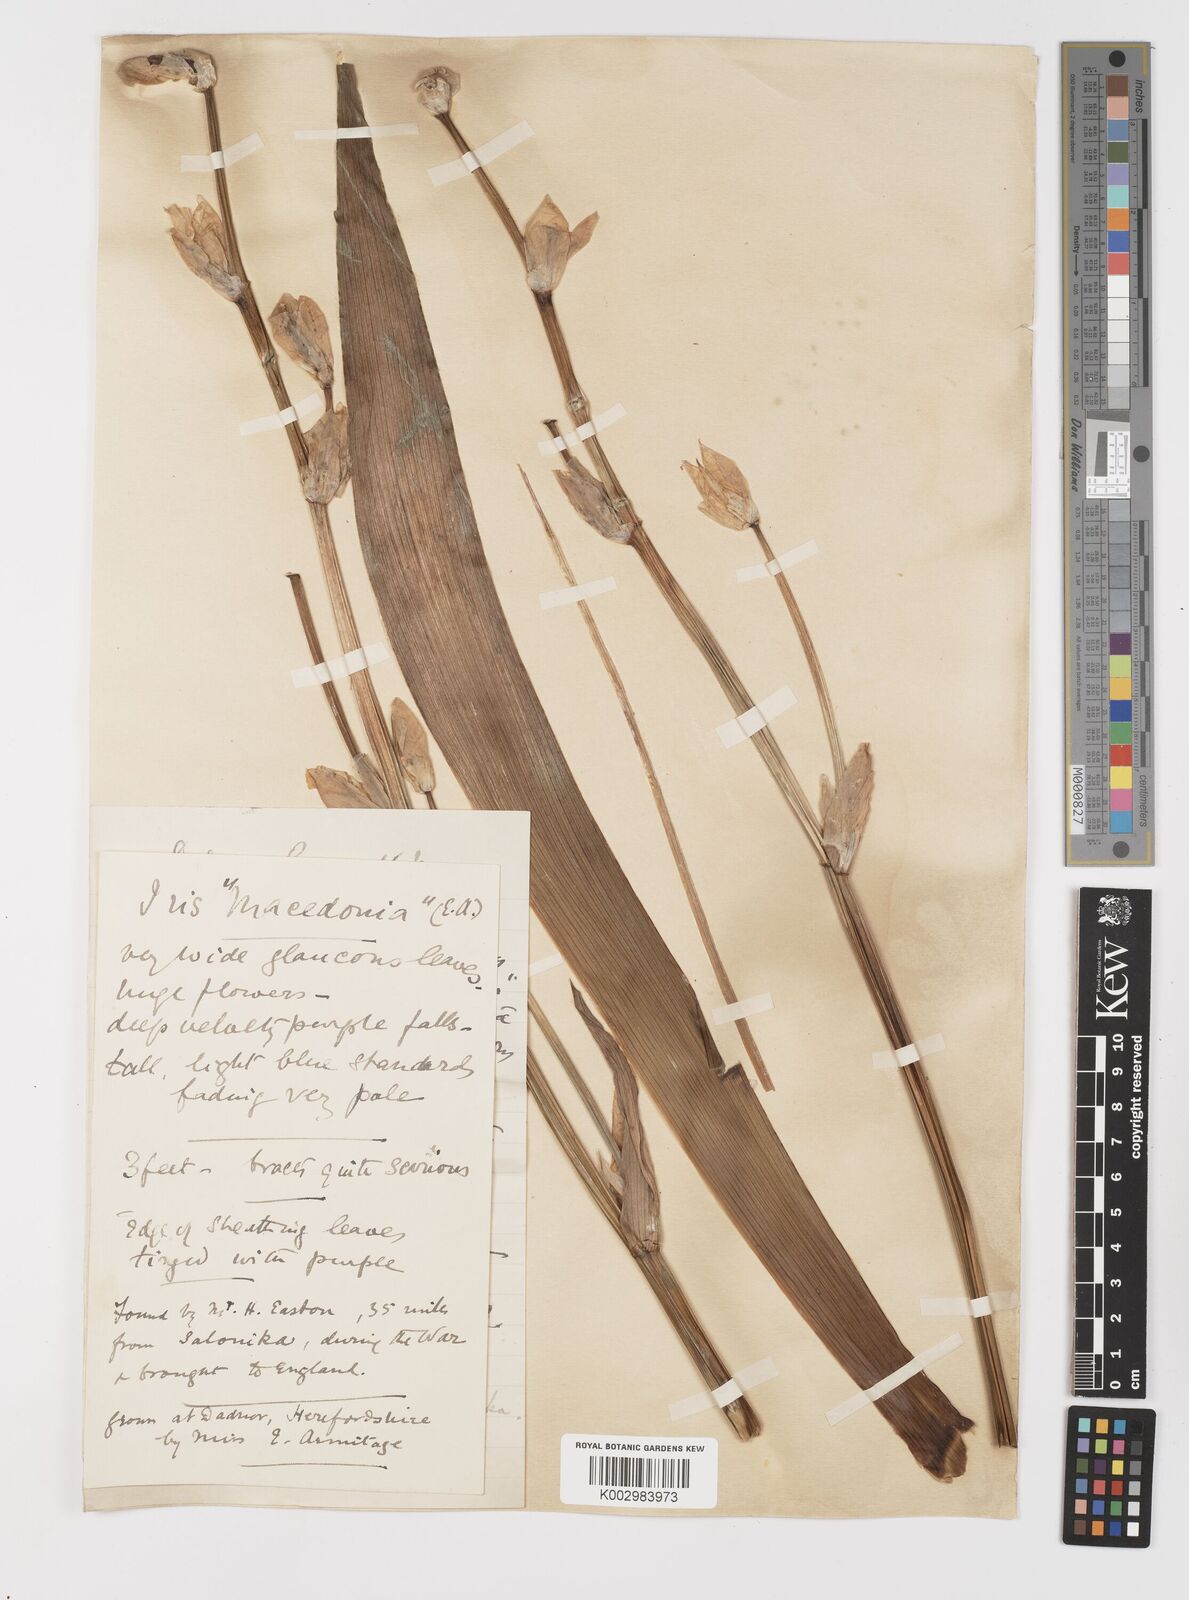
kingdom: Plantae
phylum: Tracheophyta
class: Liliopsida
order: Asparagales
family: Iridaceae
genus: Iris
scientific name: Iris germanica
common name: German iris
